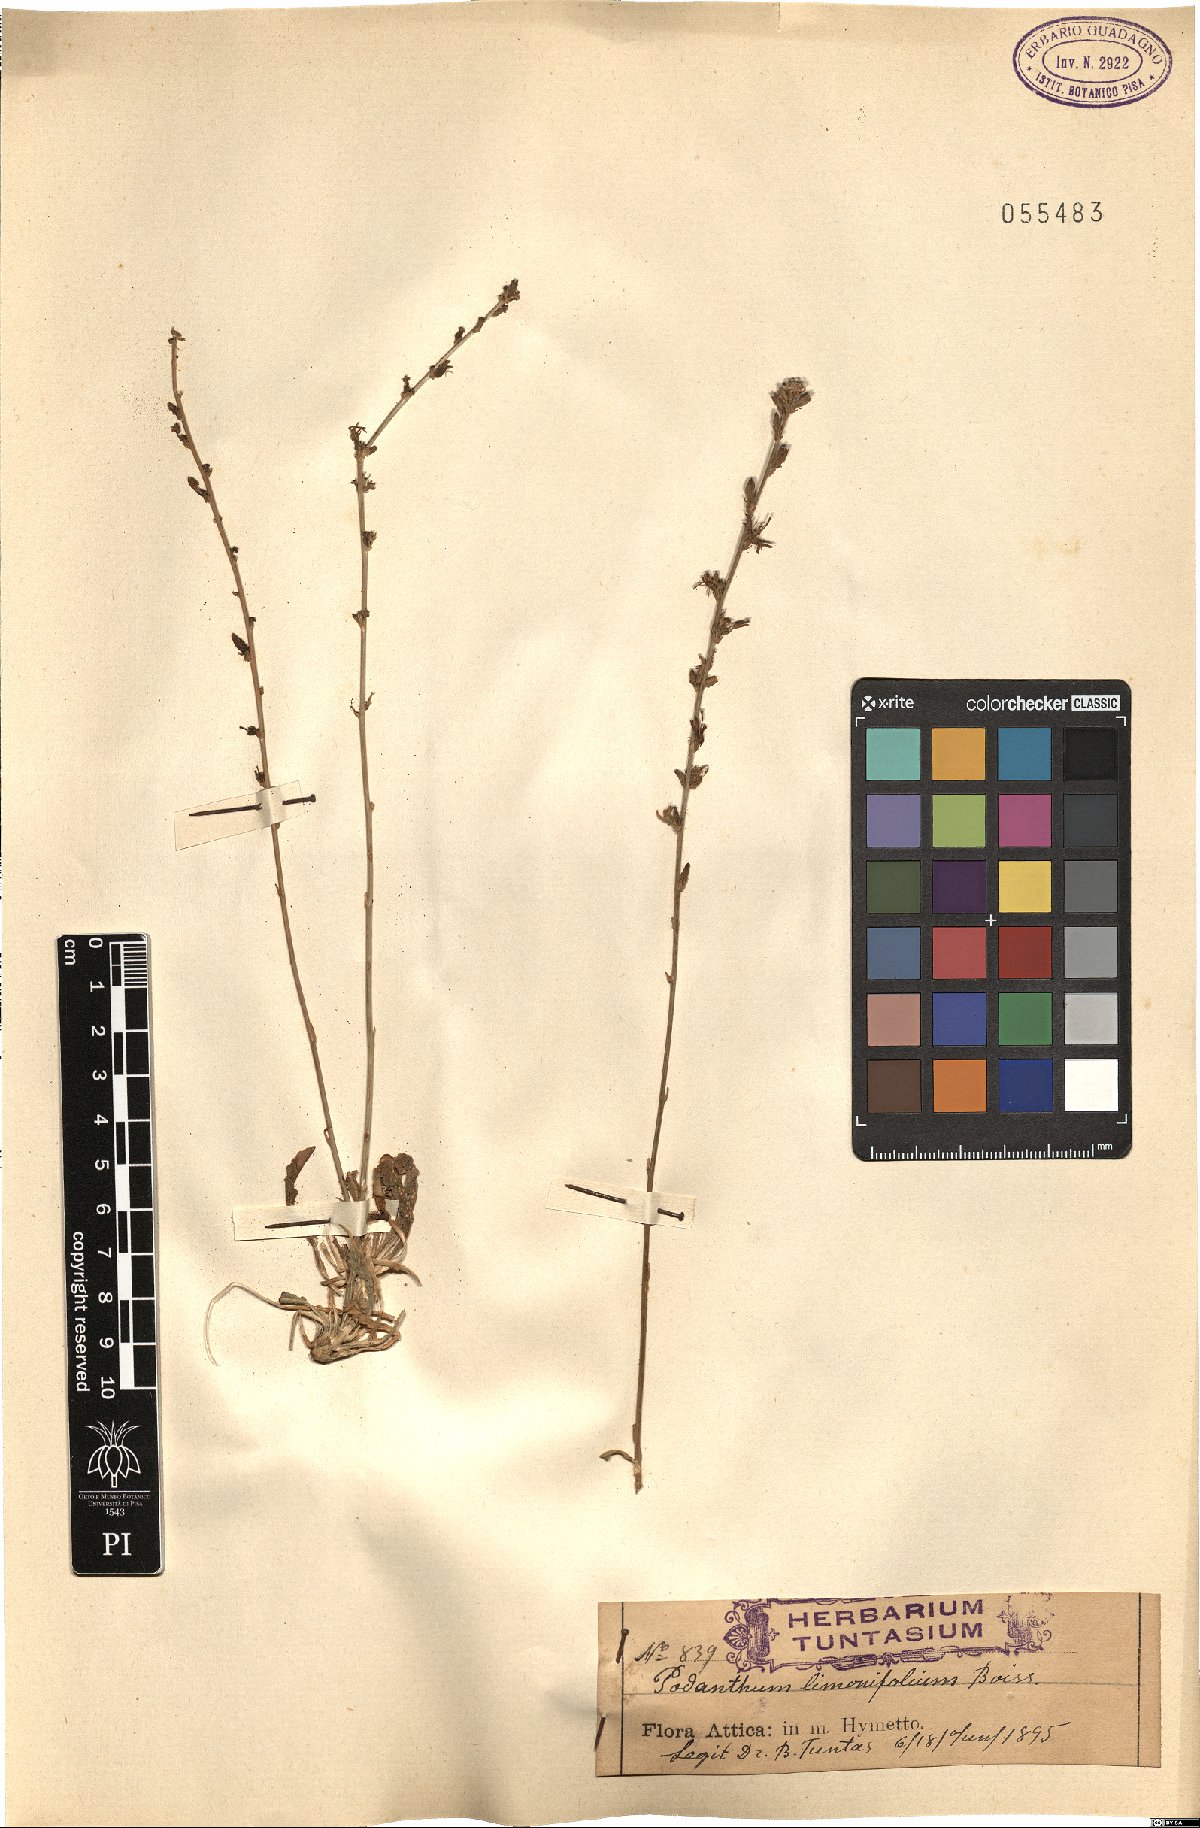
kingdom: Plantae
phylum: Tracheophyta
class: Magnoliopsida
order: Asterales
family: Campanulaceae
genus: Asyneuma
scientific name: Asyneuma limonifolium
